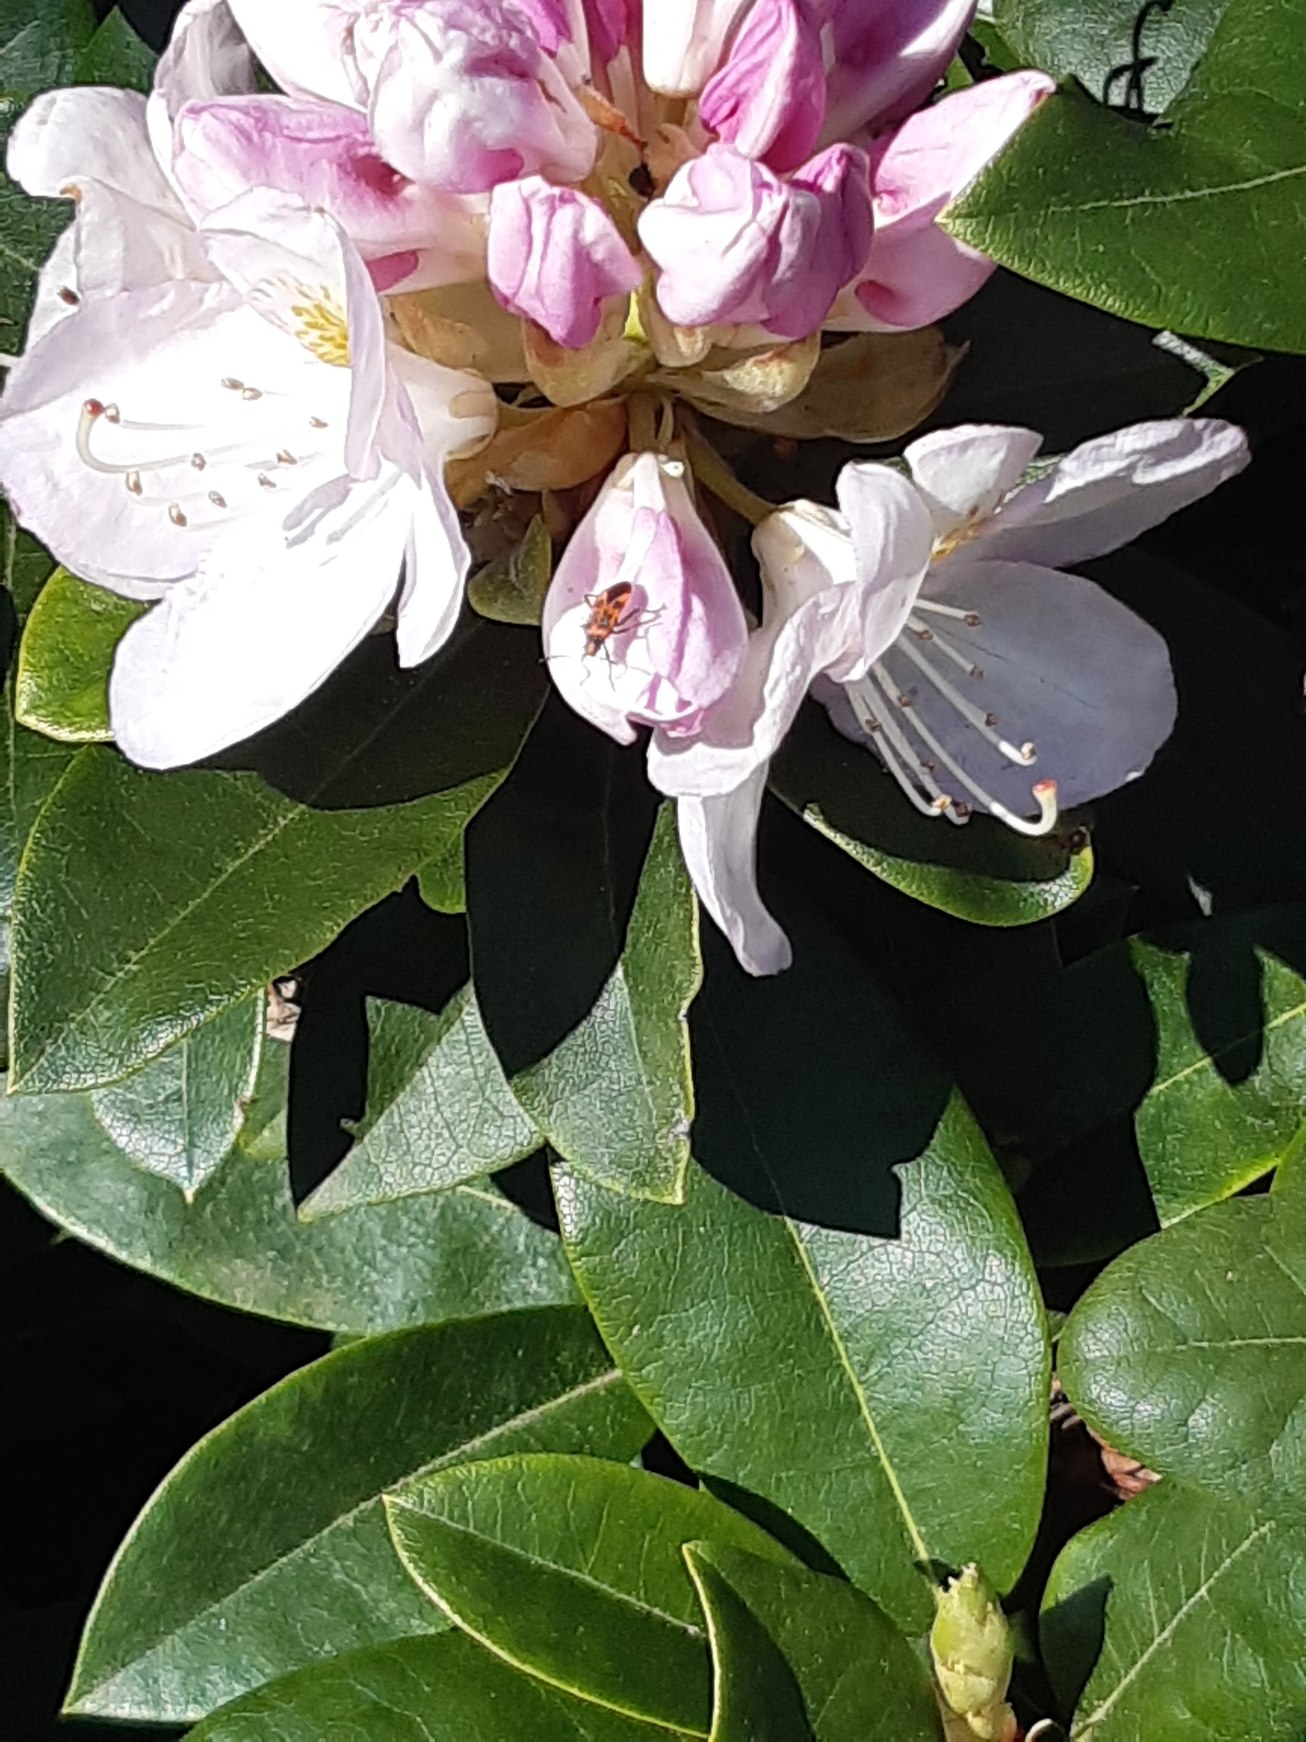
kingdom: Animalia
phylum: Arthropoda
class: Insecta
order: Hemiptera
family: Rhopalidae
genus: Corizus
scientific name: Corizus hyoscyami
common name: Rød kanttæge
